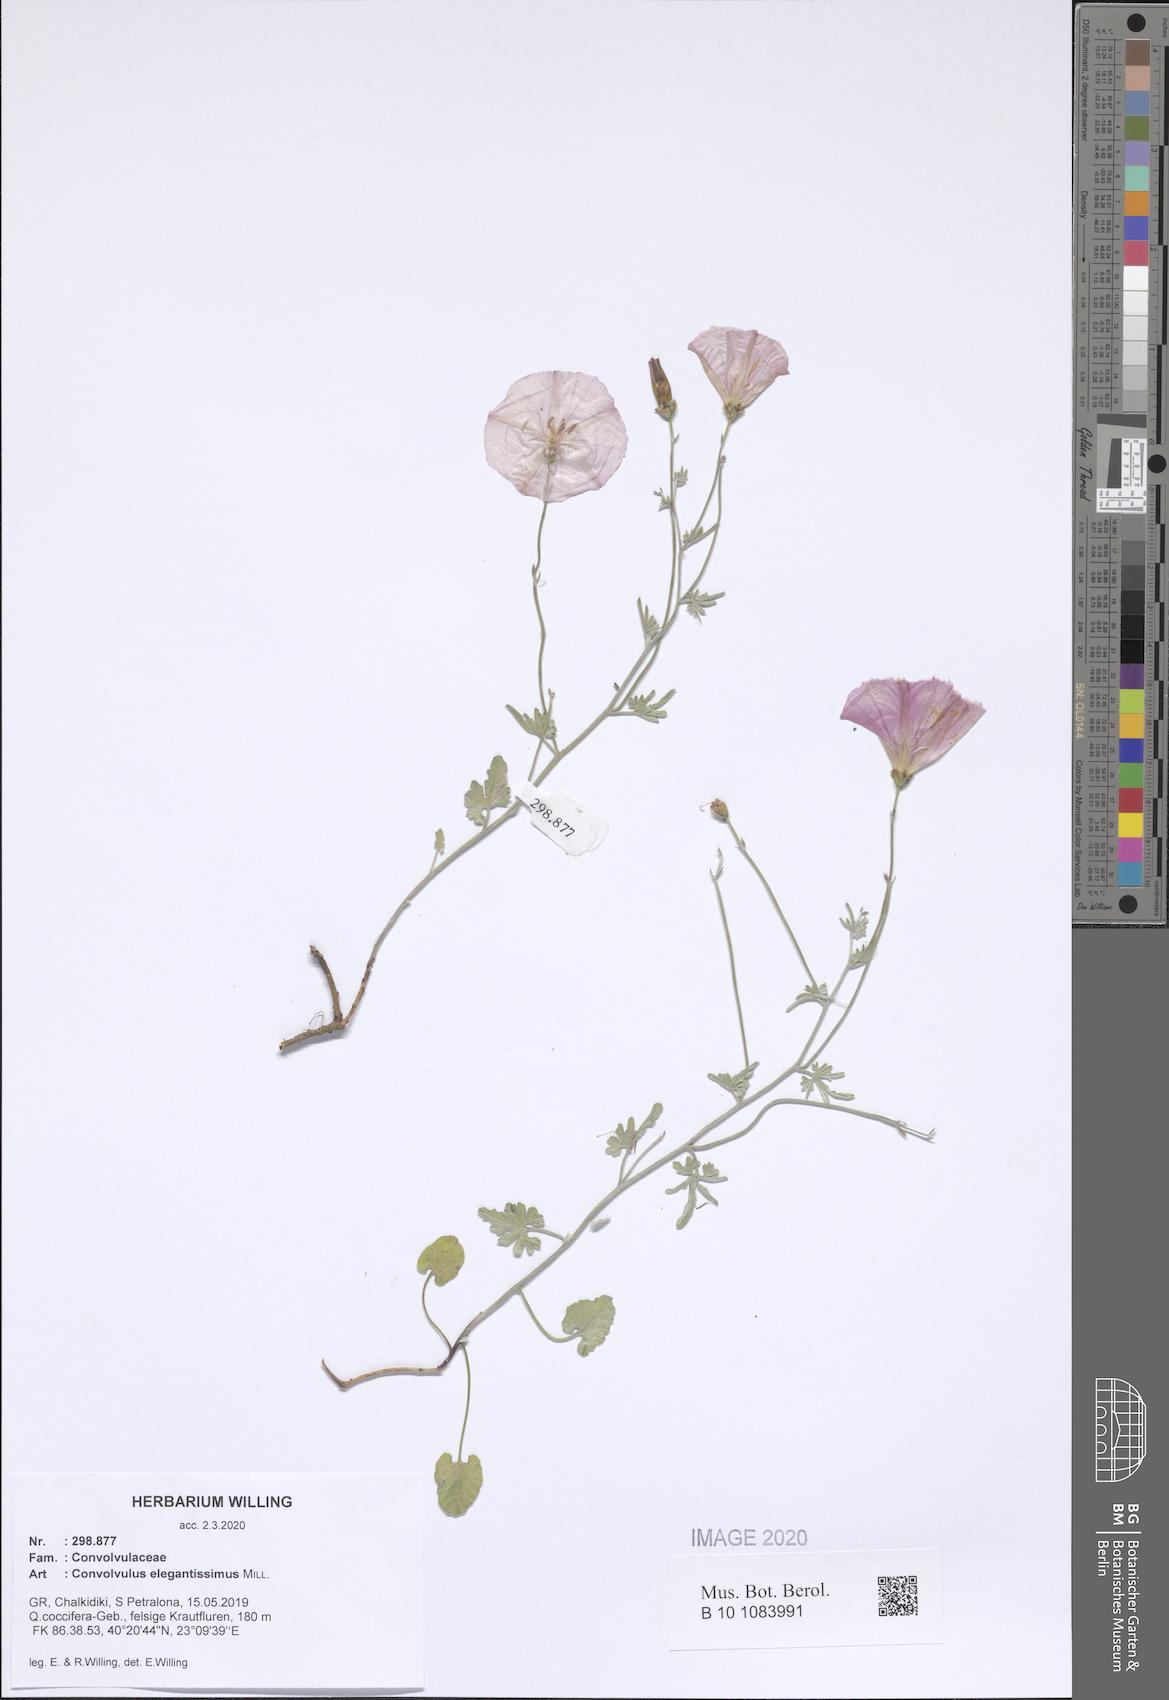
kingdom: Plantae
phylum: Tracheophyta
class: Magnoliopsida
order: Solanales
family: Convolvulaceae
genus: Convolvulus
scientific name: Convolvulus elegantissimus
